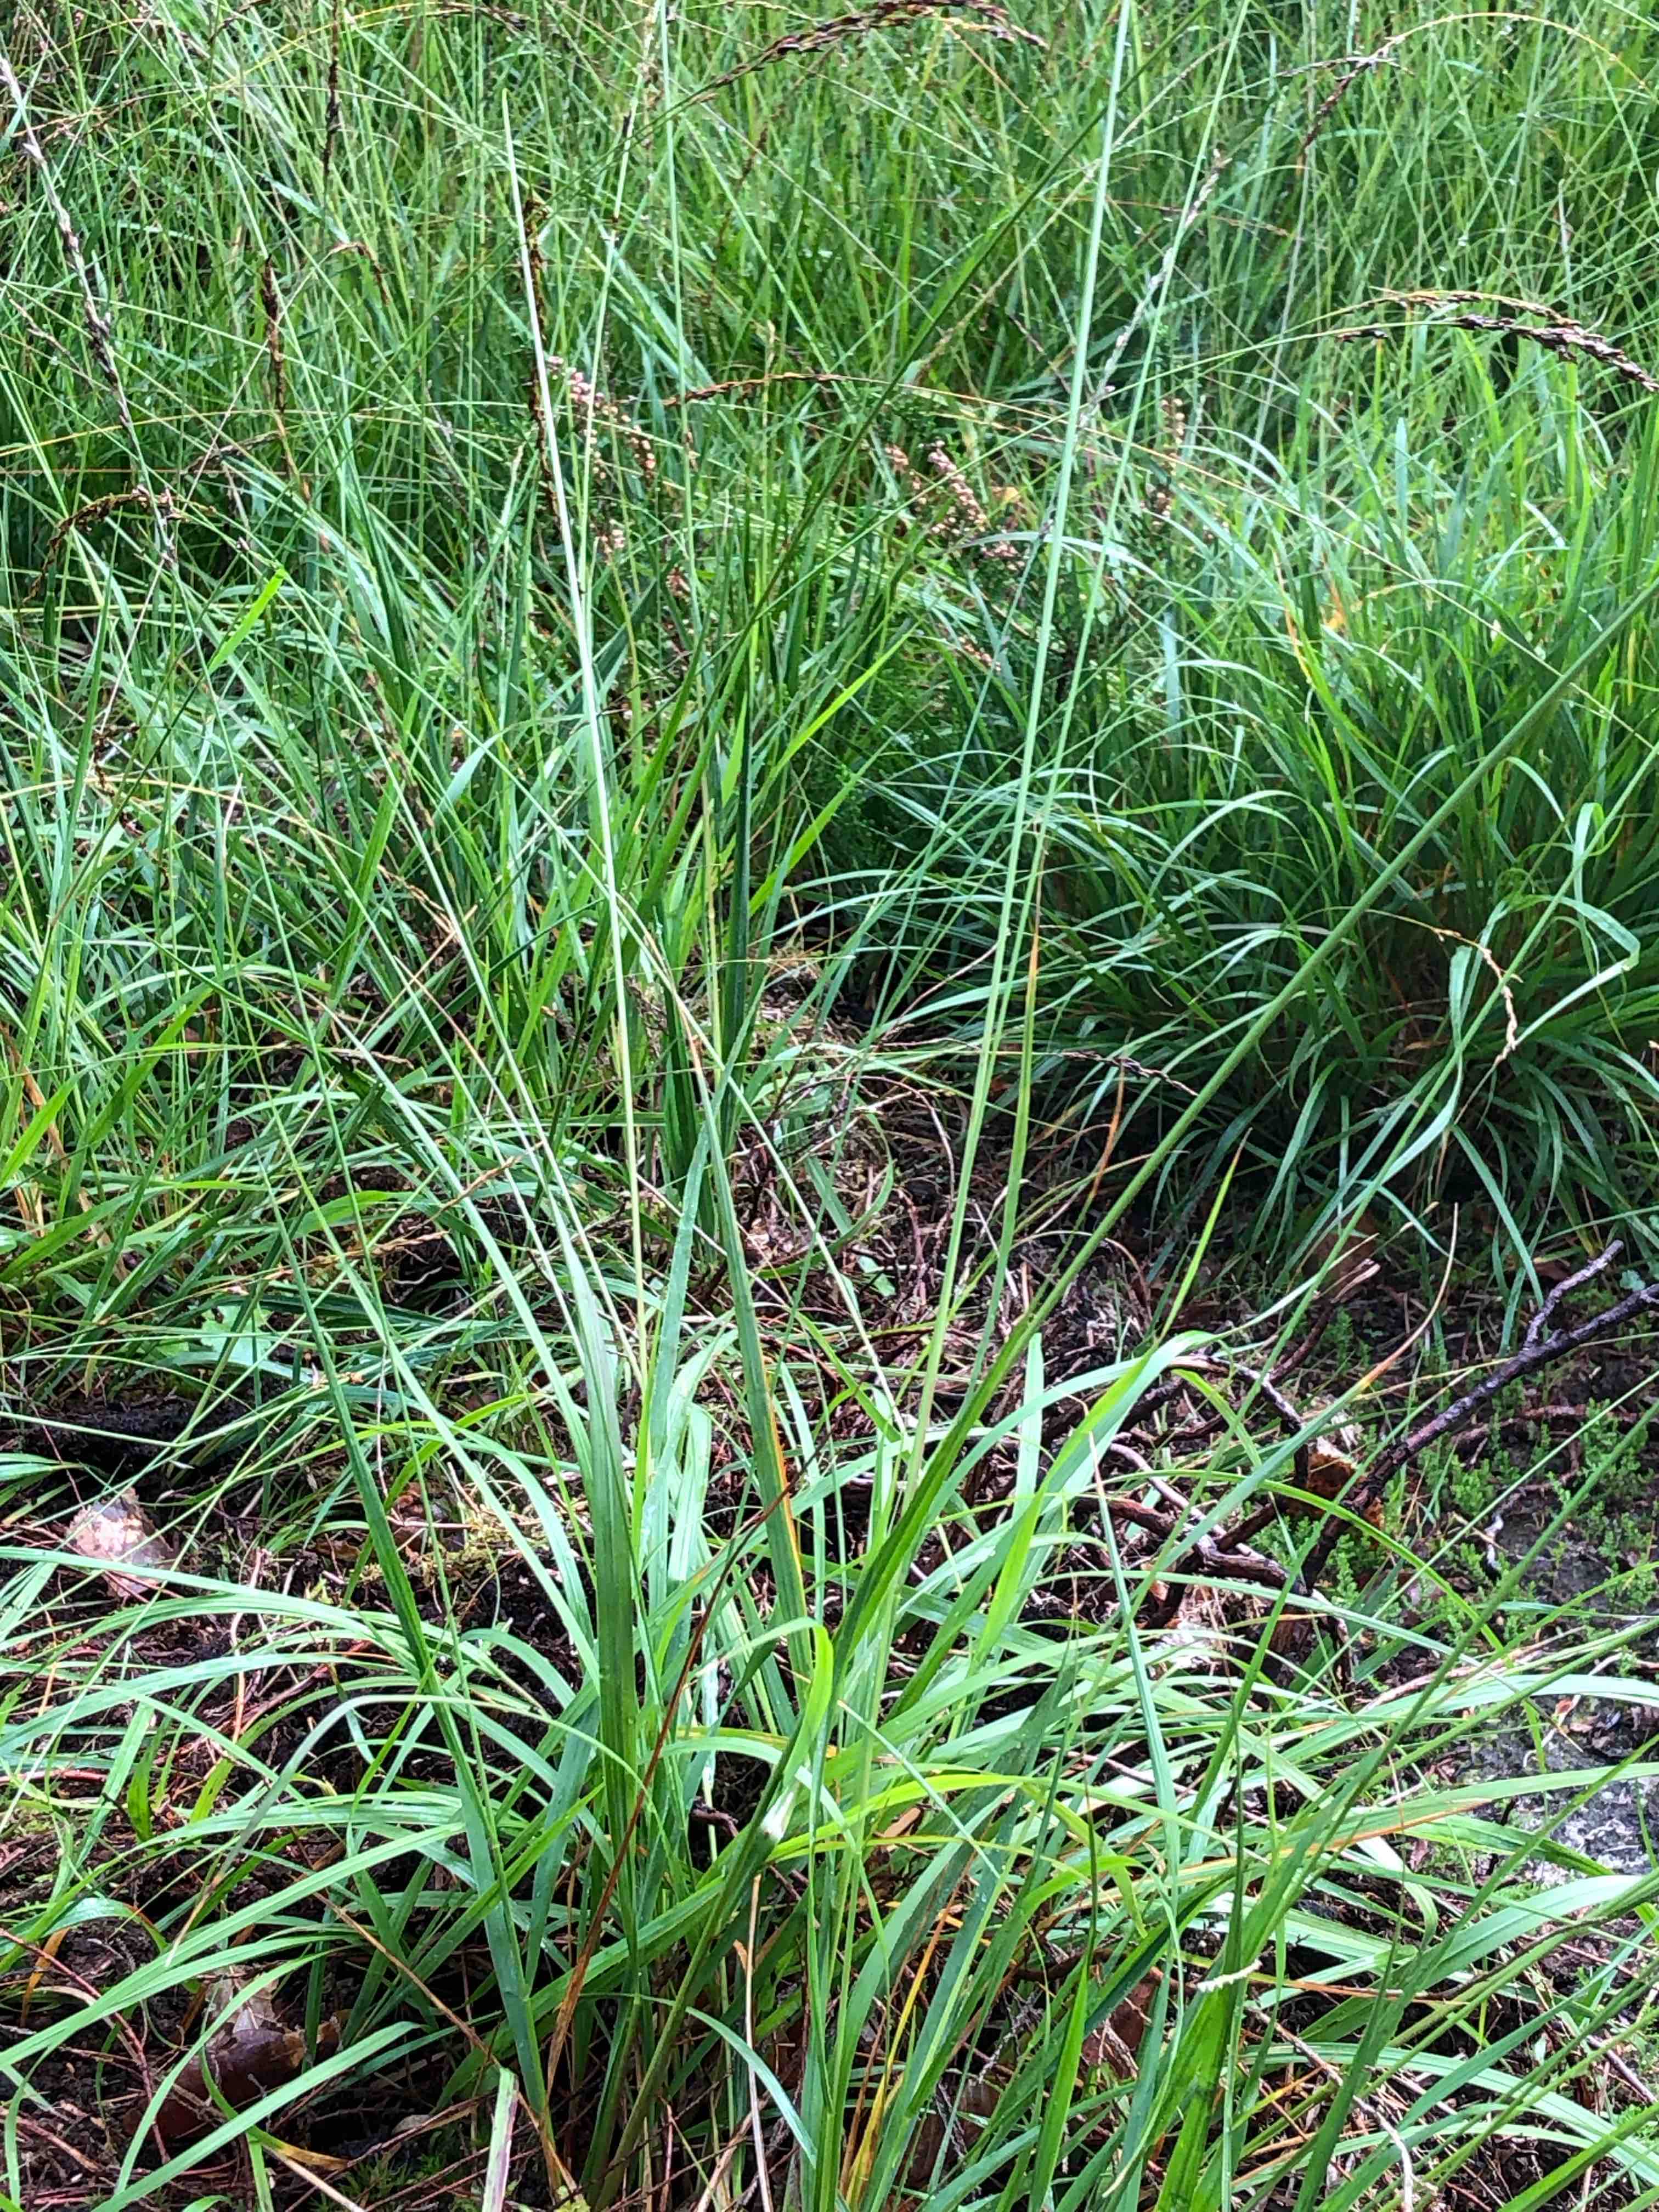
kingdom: Fungi
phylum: Ascomycota
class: Sordariomycetes
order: Hypocreales
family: Clavicipitaceae
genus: Claviceps
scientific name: Claviceps purpurea
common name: almindelig meldrøjer
